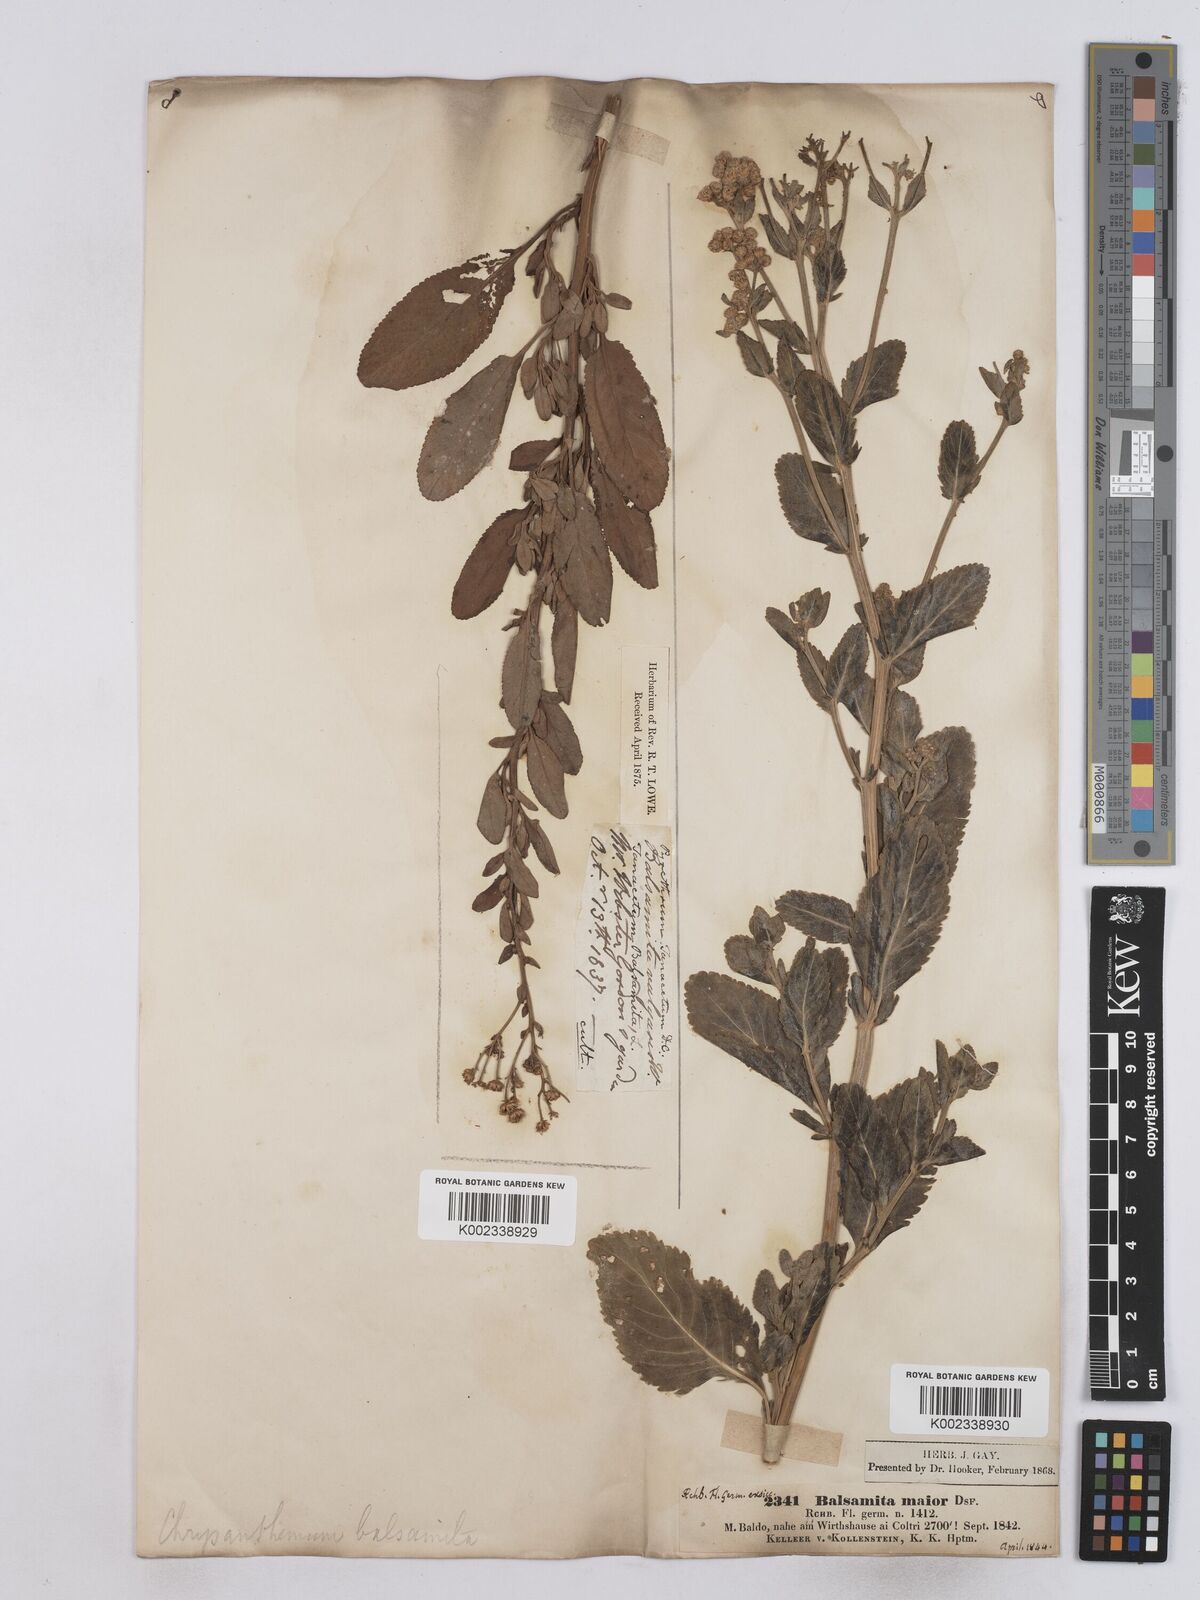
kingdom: Plantae
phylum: Tracheophyta
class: Magnoliopsida
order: Asterales
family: Asteraceae
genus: Tanacetum
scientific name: Tanacetum balsamita
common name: Costmary
